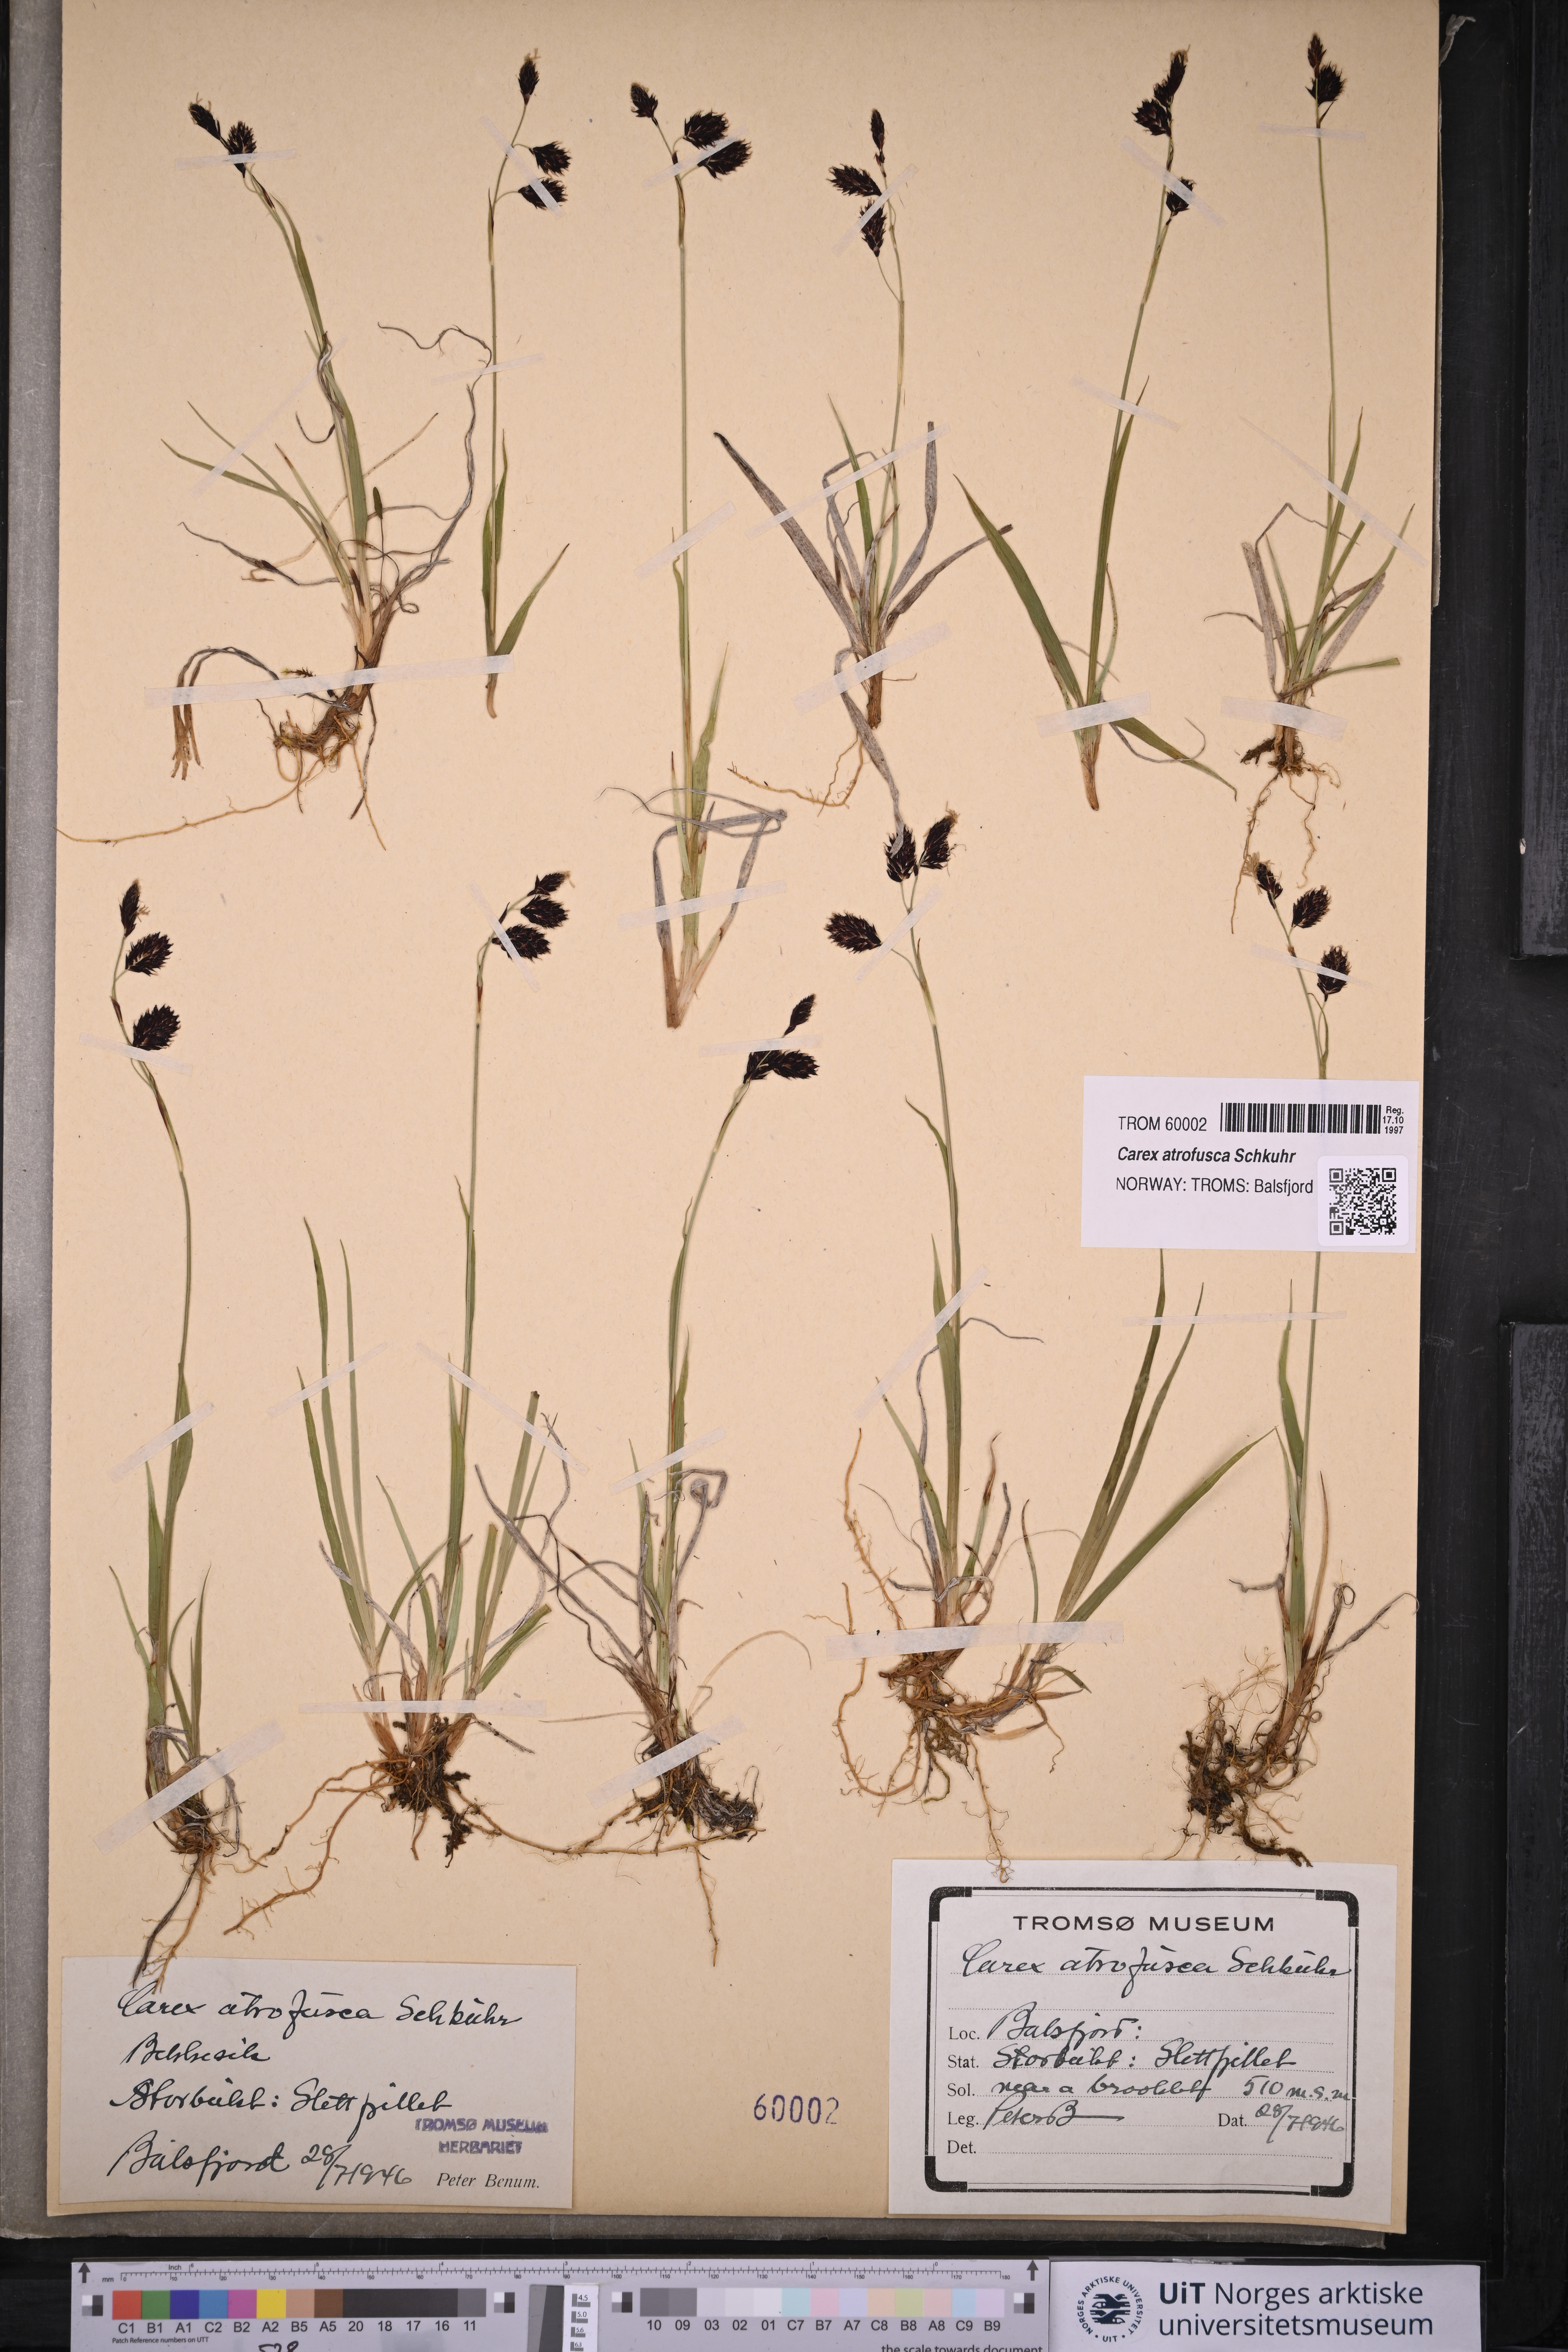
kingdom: Plantae
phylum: Tracheophyta
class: Liliopsida
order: Poales
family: Cyperaceae
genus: Carex
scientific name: Carex atrofusca
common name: Scorched alpine-sedge
